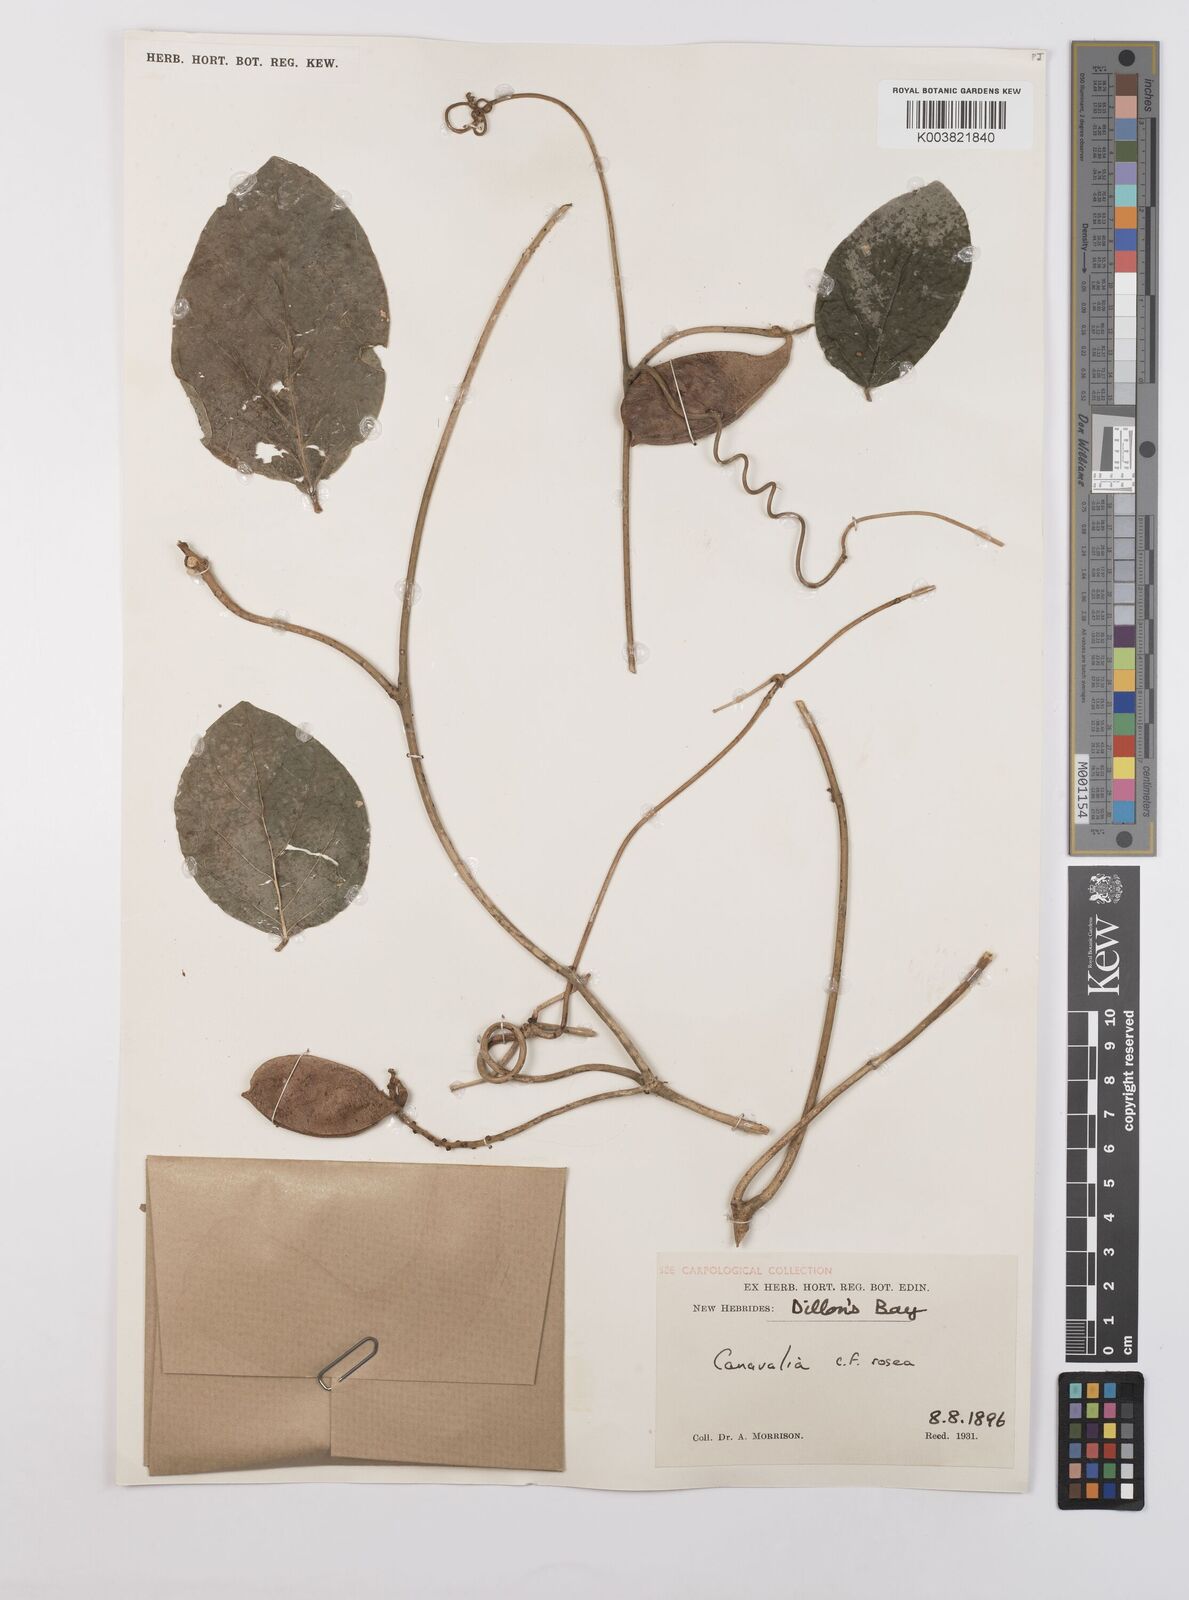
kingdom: Plantae
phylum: Tracheophyta
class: Magnoliopsida
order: Fabales
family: Fabaceae
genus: Canavalia
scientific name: Canavalia rosea
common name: Beach-bean
